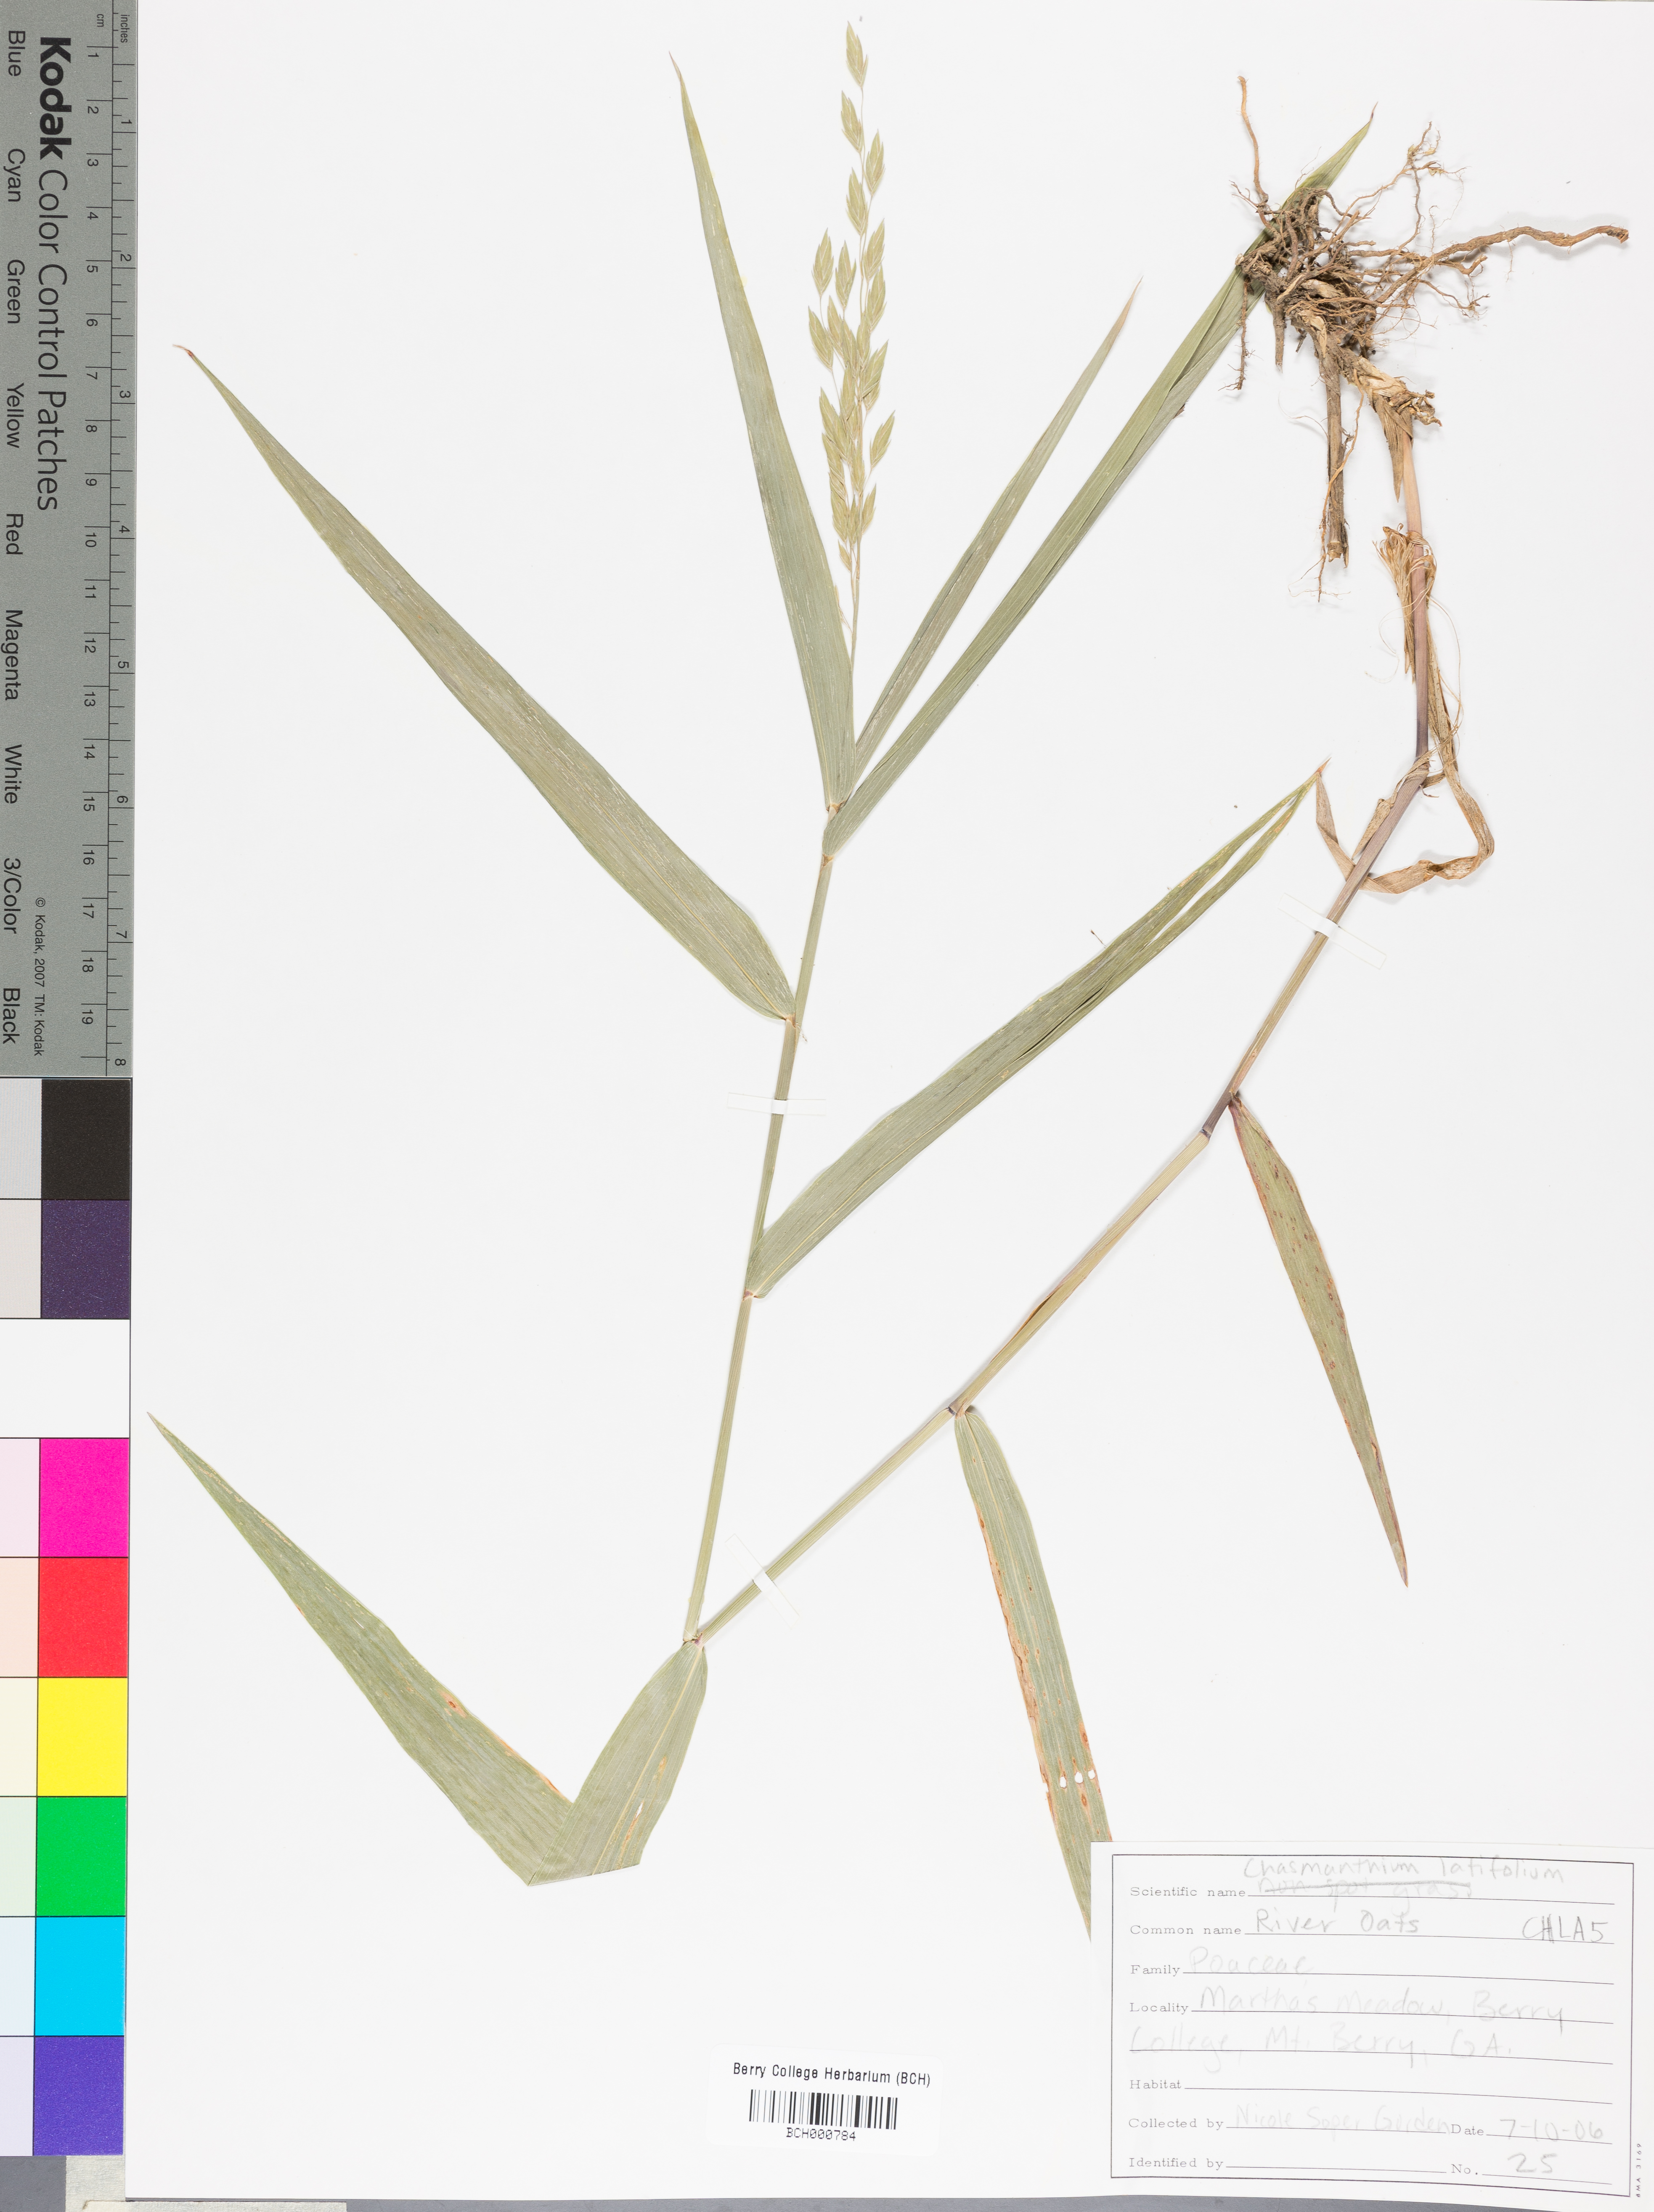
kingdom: Plantae
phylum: Tracheophyta
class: Liliopsida
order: Poales
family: Poaceae
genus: Chasmanthium
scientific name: Chasmanthium latifolium
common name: Broad-leaved chasmanthium
